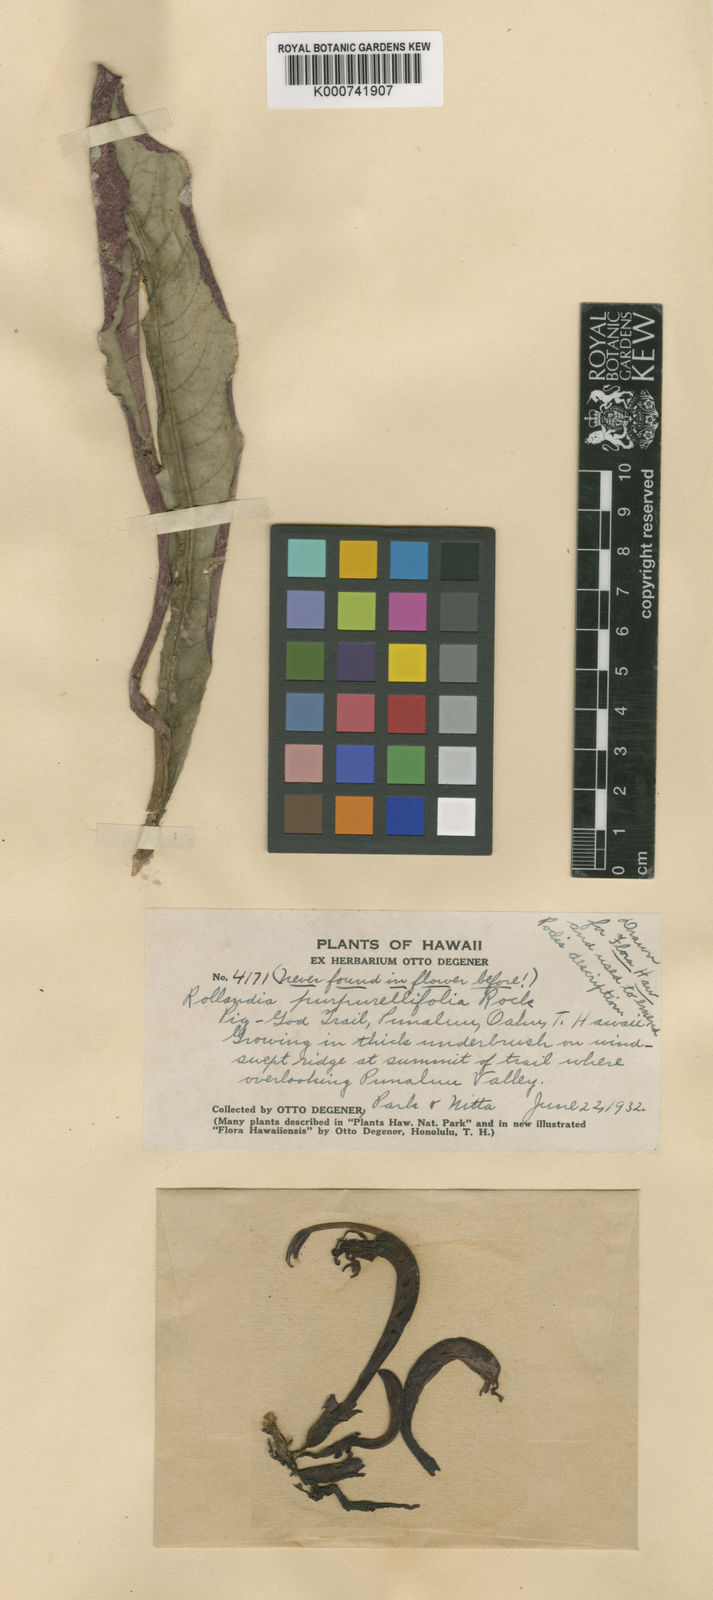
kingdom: Plantae
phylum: Tracheophyta
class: Magnoliopsida
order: Asterales
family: Campanulaceae
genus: Cyanea
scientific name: Cyanea purpurellifolia
